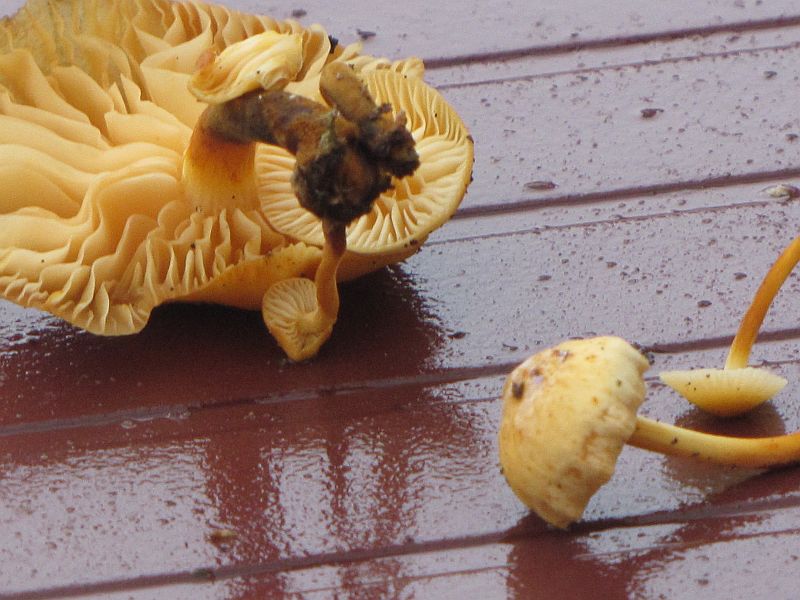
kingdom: Fungi
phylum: Basidiomycota
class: Agaricomycetes
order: Agaricales
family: Physalacriaceae
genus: Flammulina
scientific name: Flammulina elastica
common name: pile-fløjlsfod
